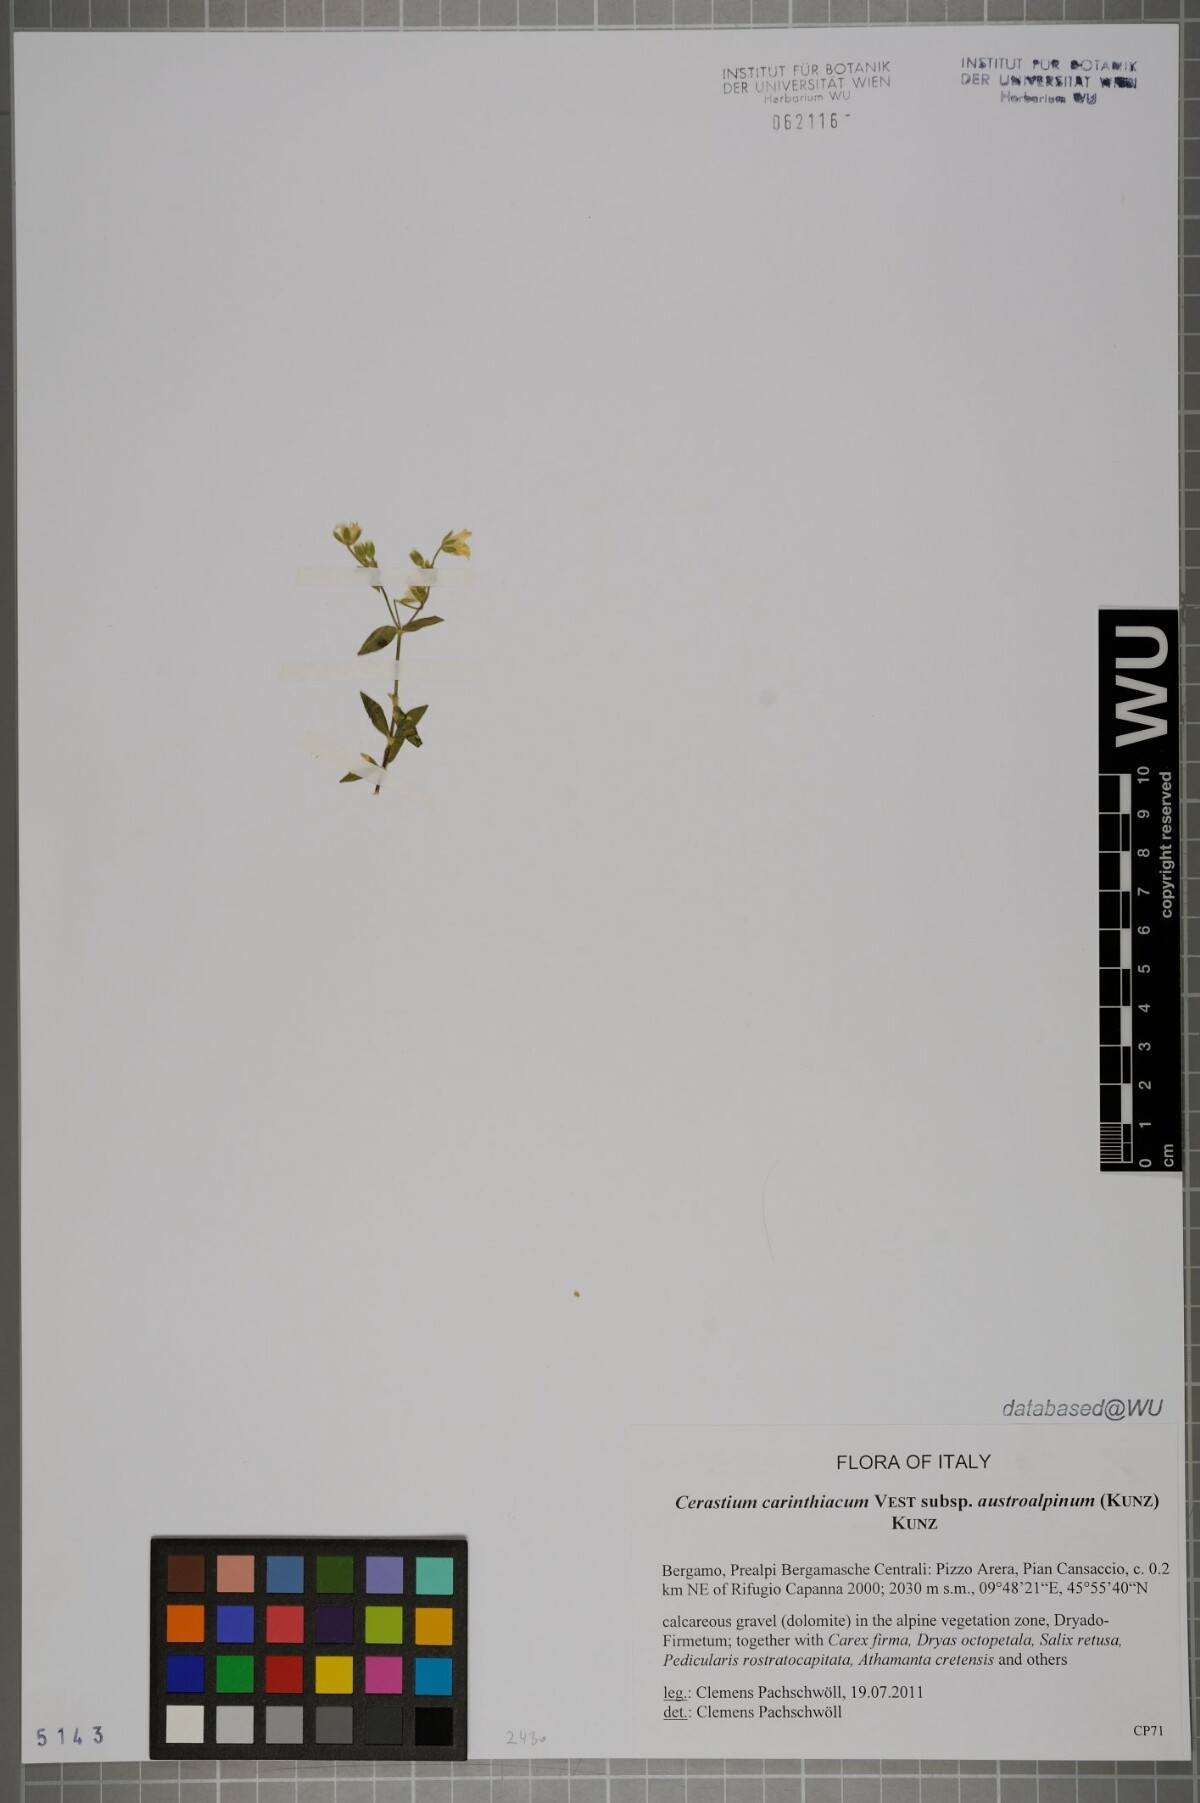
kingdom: Plantae
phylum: Tracheophyta
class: Magnoliopsida
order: Caryophyllales
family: Caryophyllaceae
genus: Cerastium
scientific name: Cerastium carinthiacum
